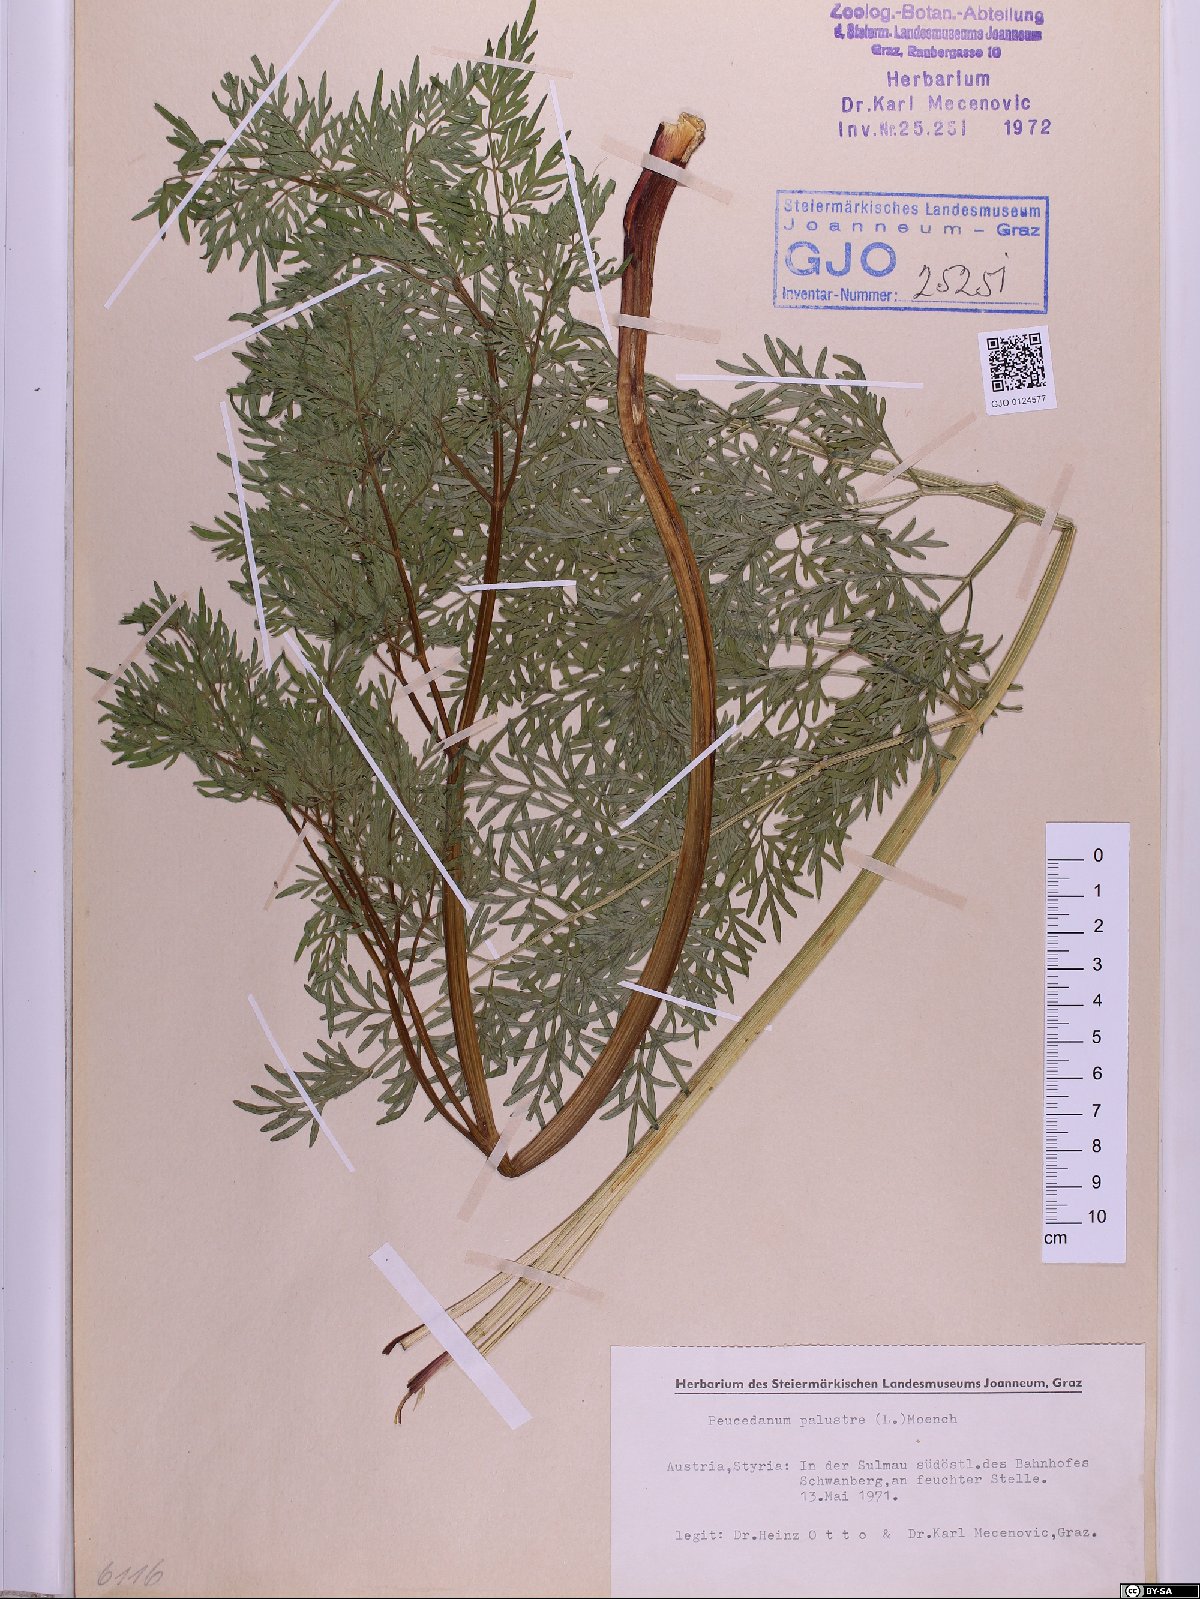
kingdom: Plantae
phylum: Tracheophyta
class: Magnoliopsida
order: Apiales
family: Apiaceae
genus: Thysselinum
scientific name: Thysselinum palustre
